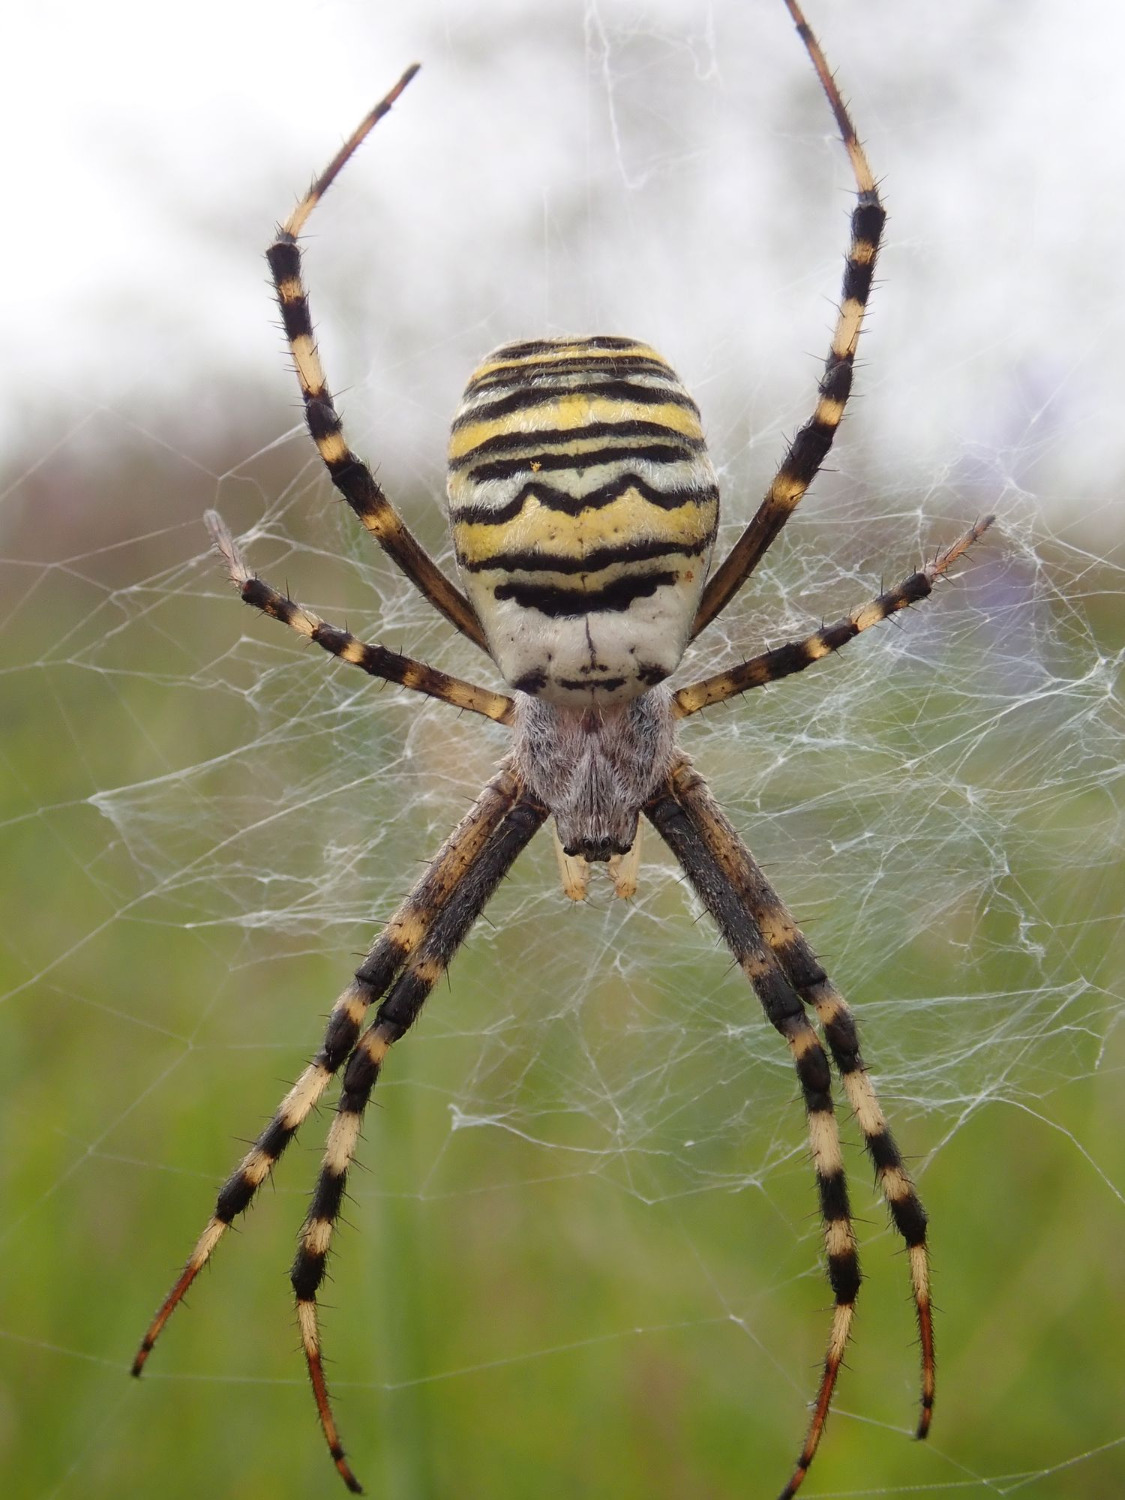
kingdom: Animalia
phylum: Arthropoda
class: Arachnida
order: Araneae
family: Araneidae
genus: Argiope
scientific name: Argiope bruennichi
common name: Hvepseedderkop
